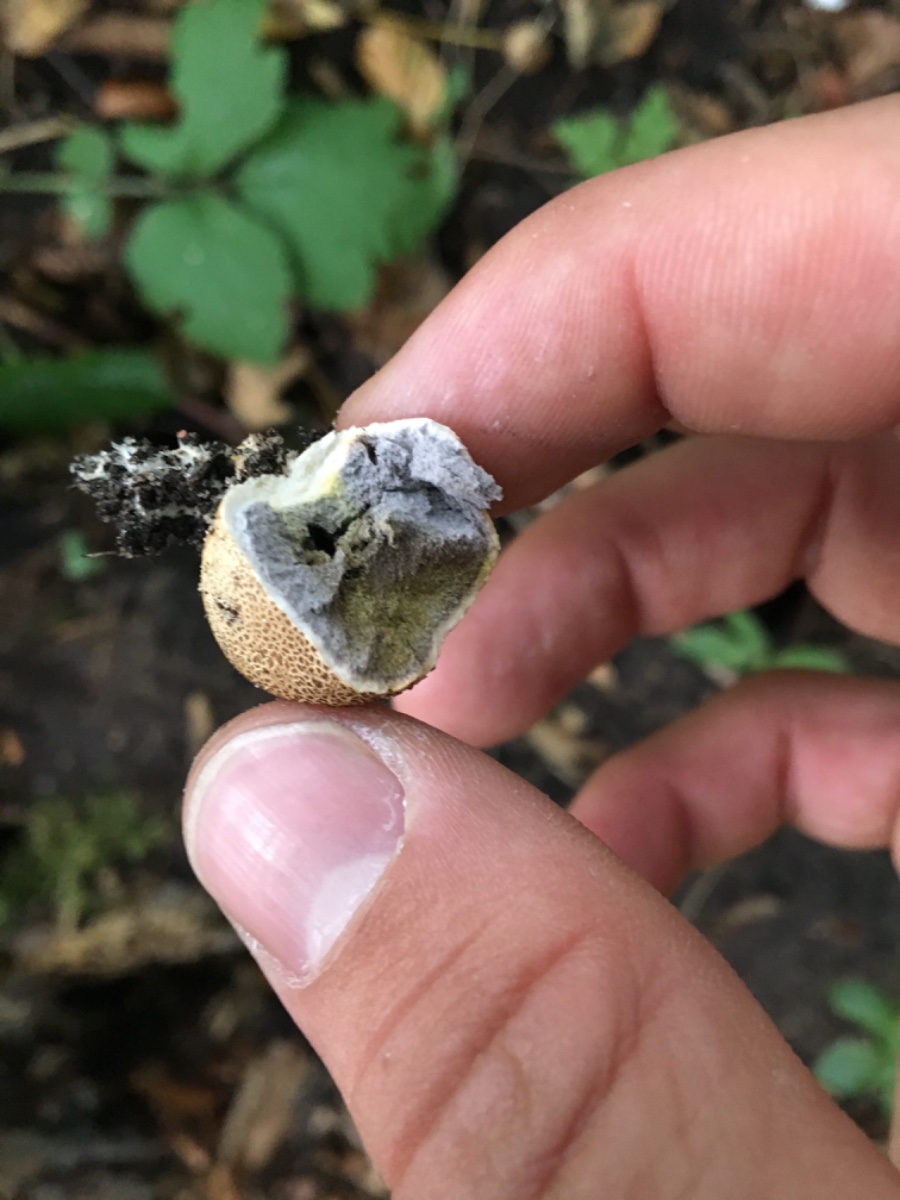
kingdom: Fungi
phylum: Basidiomycota
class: Agaricomycetes
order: Boletales
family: Sclerodermataceae
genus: Scleroderma
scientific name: Scleroderma citrinum
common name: almindelig bruskbold
